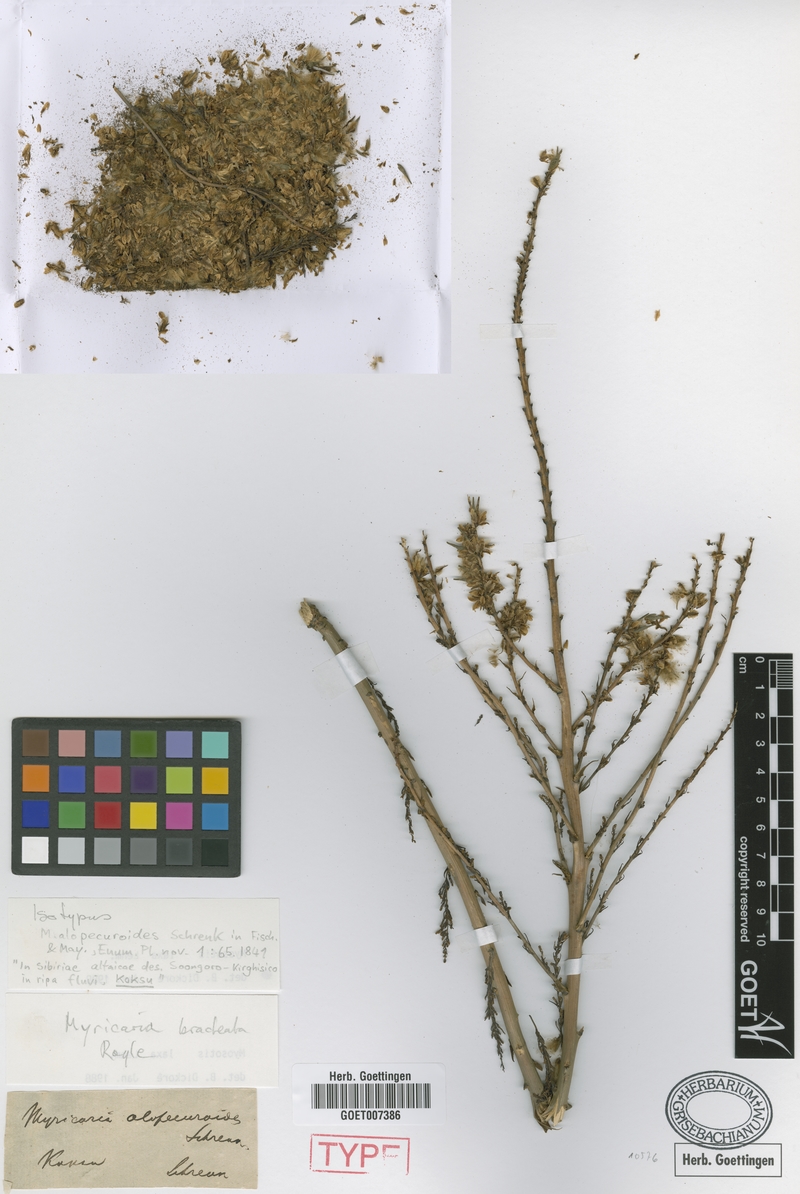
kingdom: Plantae
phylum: Tracheophyta
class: Magnoliopsida
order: Caryophyllales
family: Tamaricaceae
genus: Myricaria
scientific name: Myricaria bracteata
